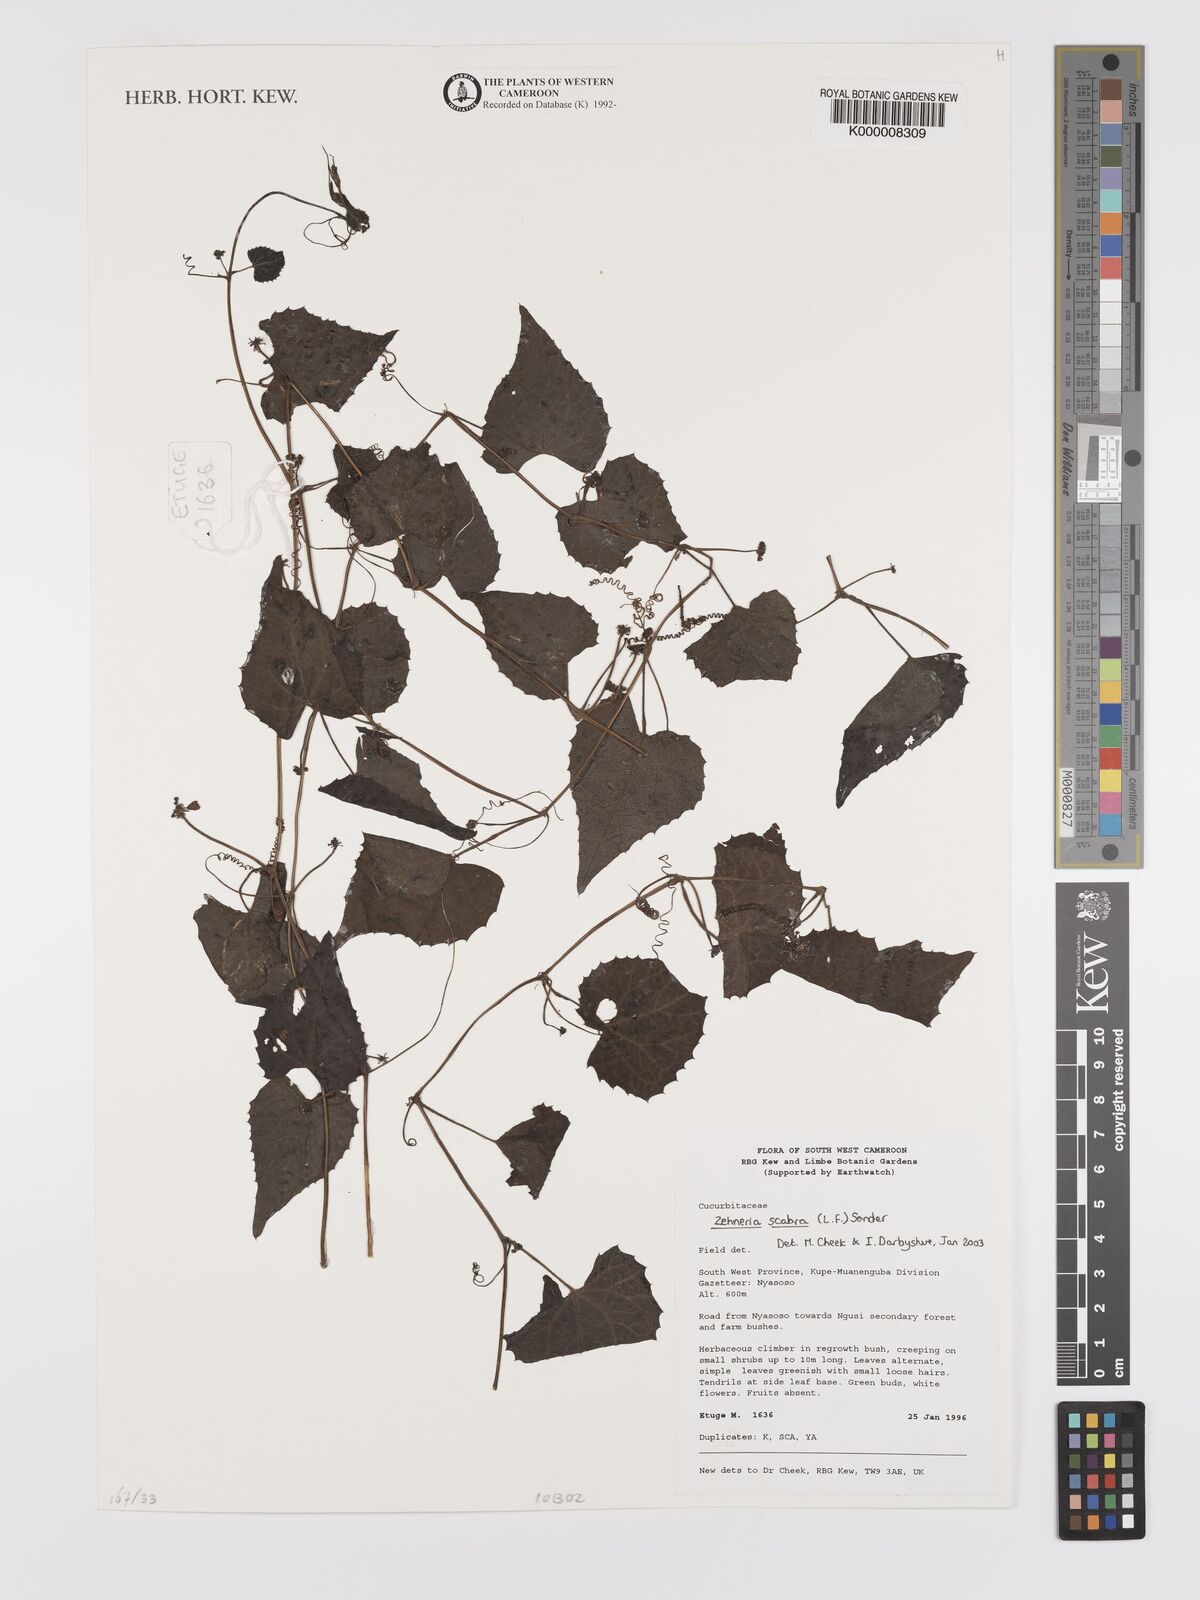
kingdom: Plantae
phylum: Tracheophyta
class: Magnoliopsida
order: Cucurbitales
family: Cucurbitaceae
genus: Zehneria
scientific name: Zehneria scabra
